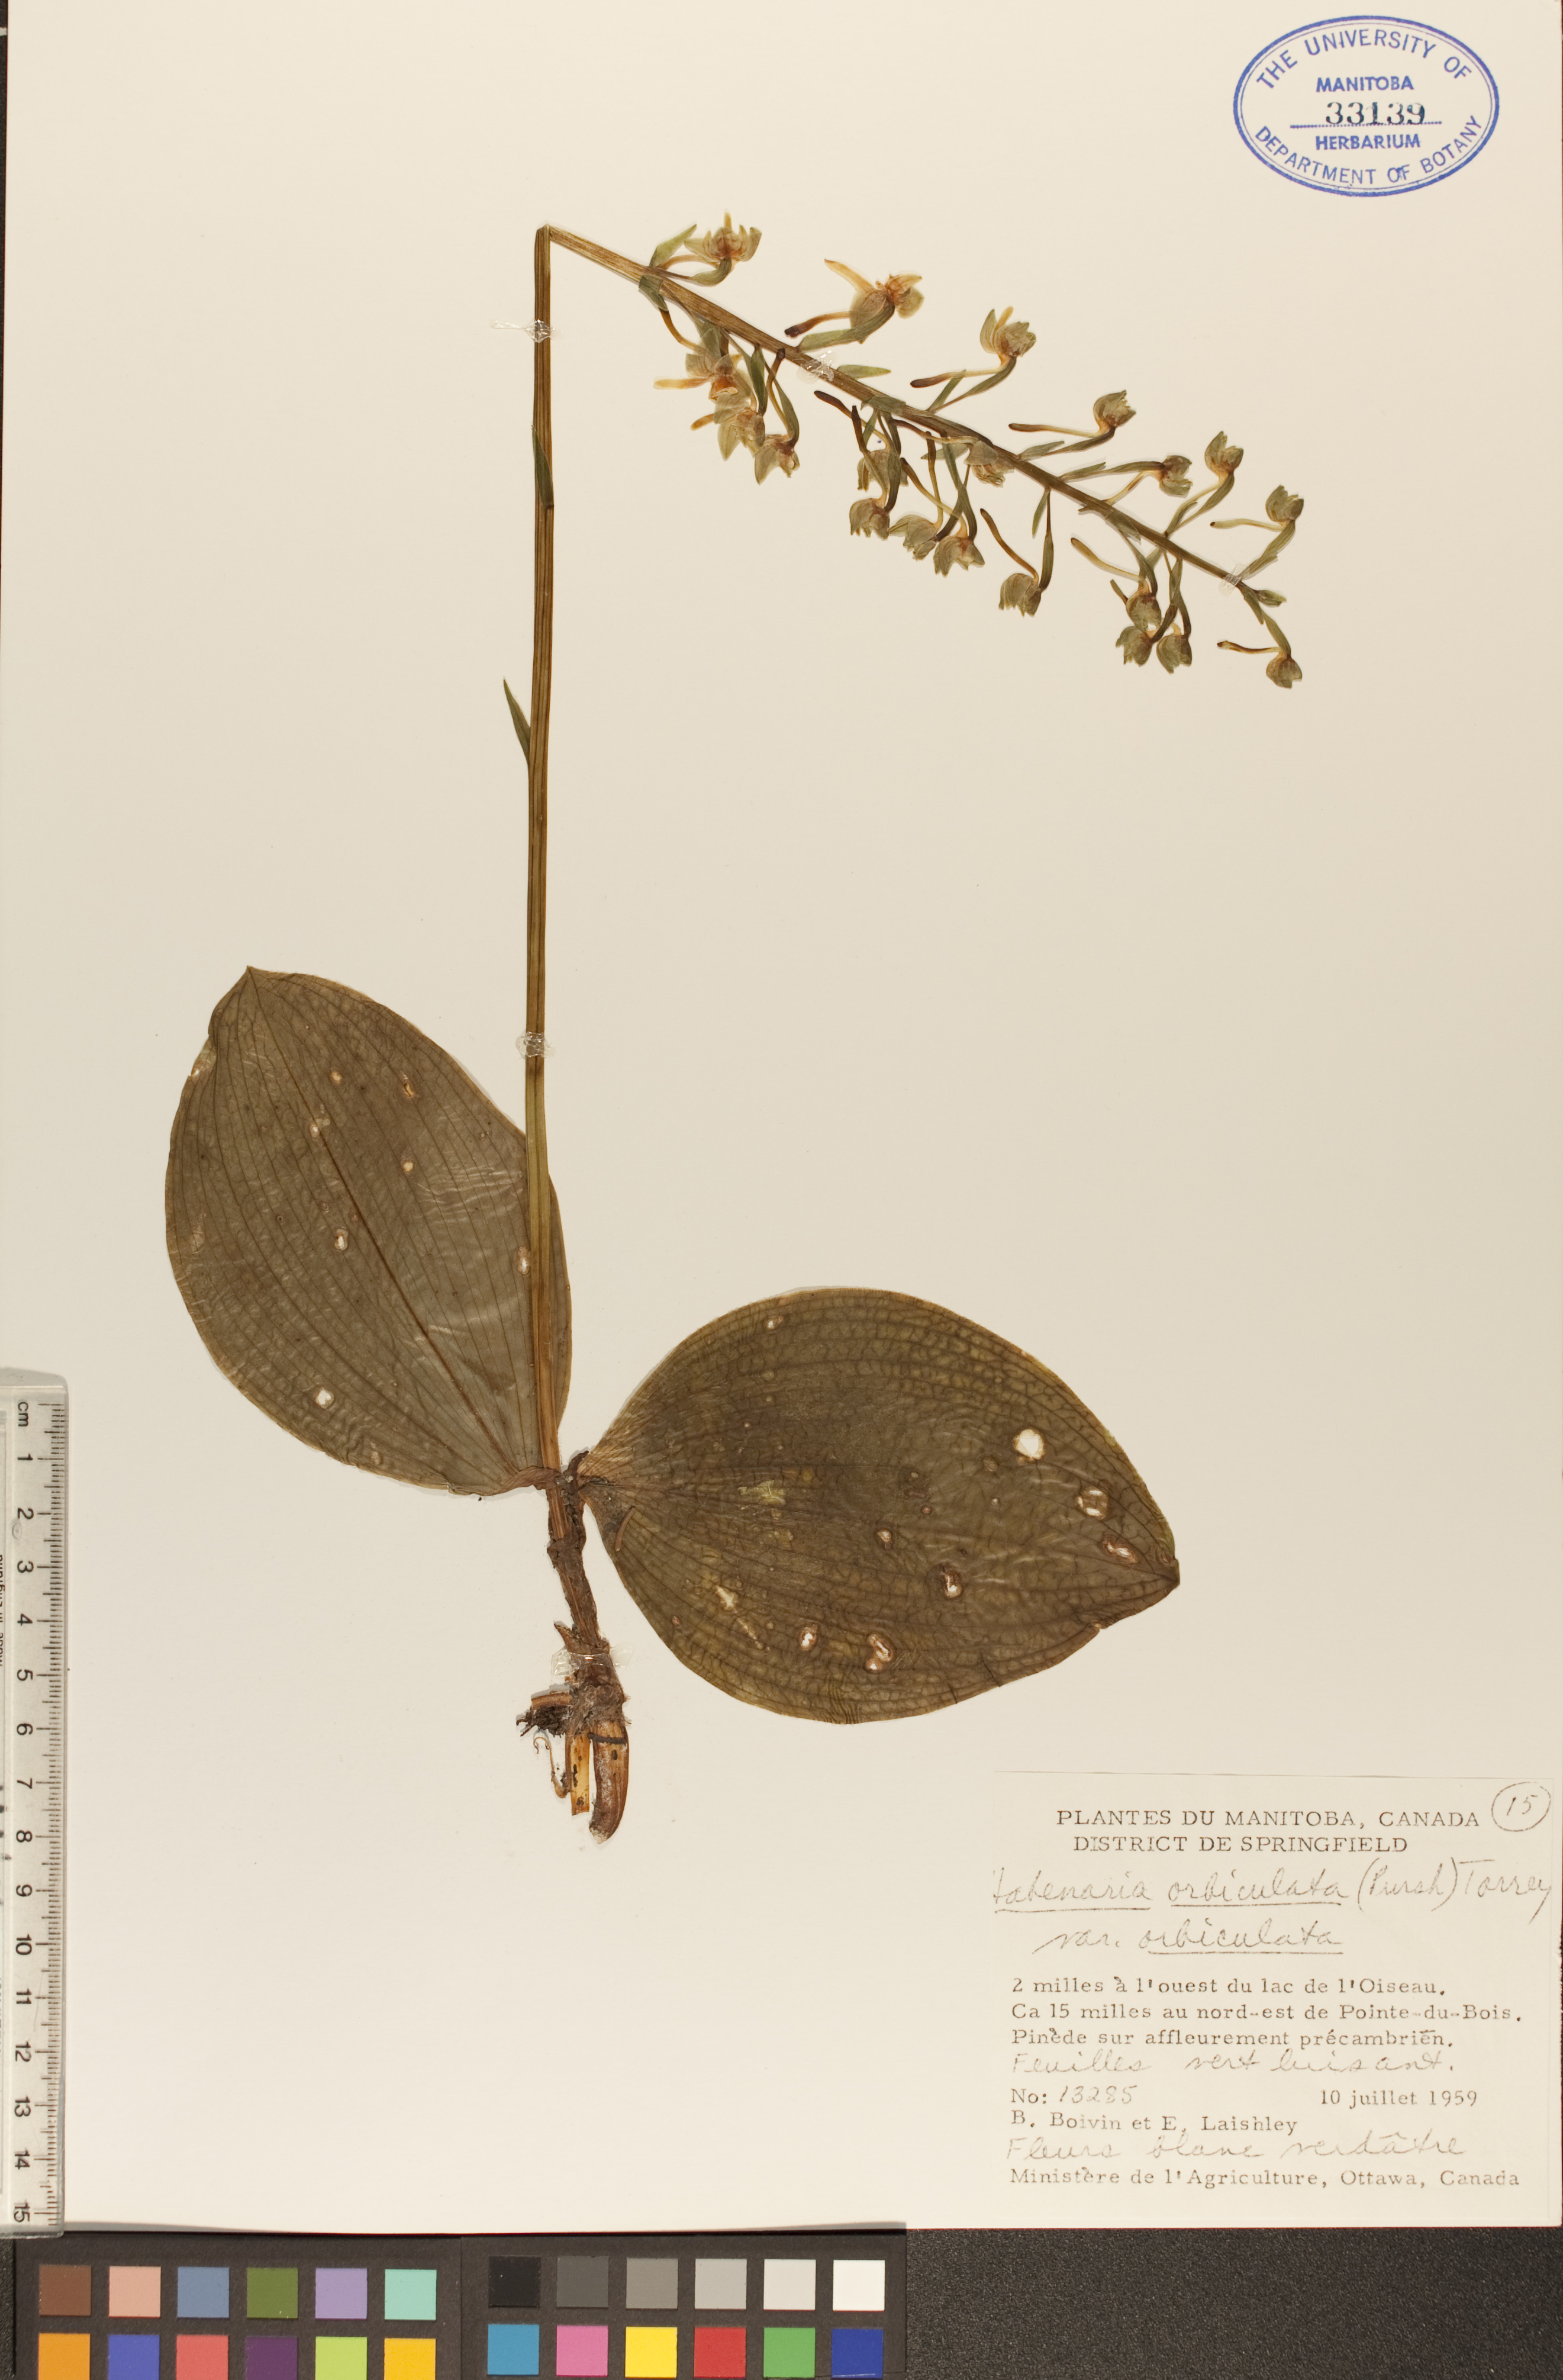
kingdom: Plantae
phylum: Tracheophyta
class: Liliopsida
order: Asparagales
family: Orchidaceae
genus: Platanthera
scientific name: Platanthera orbiculata
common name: Large round-leaved orchid
